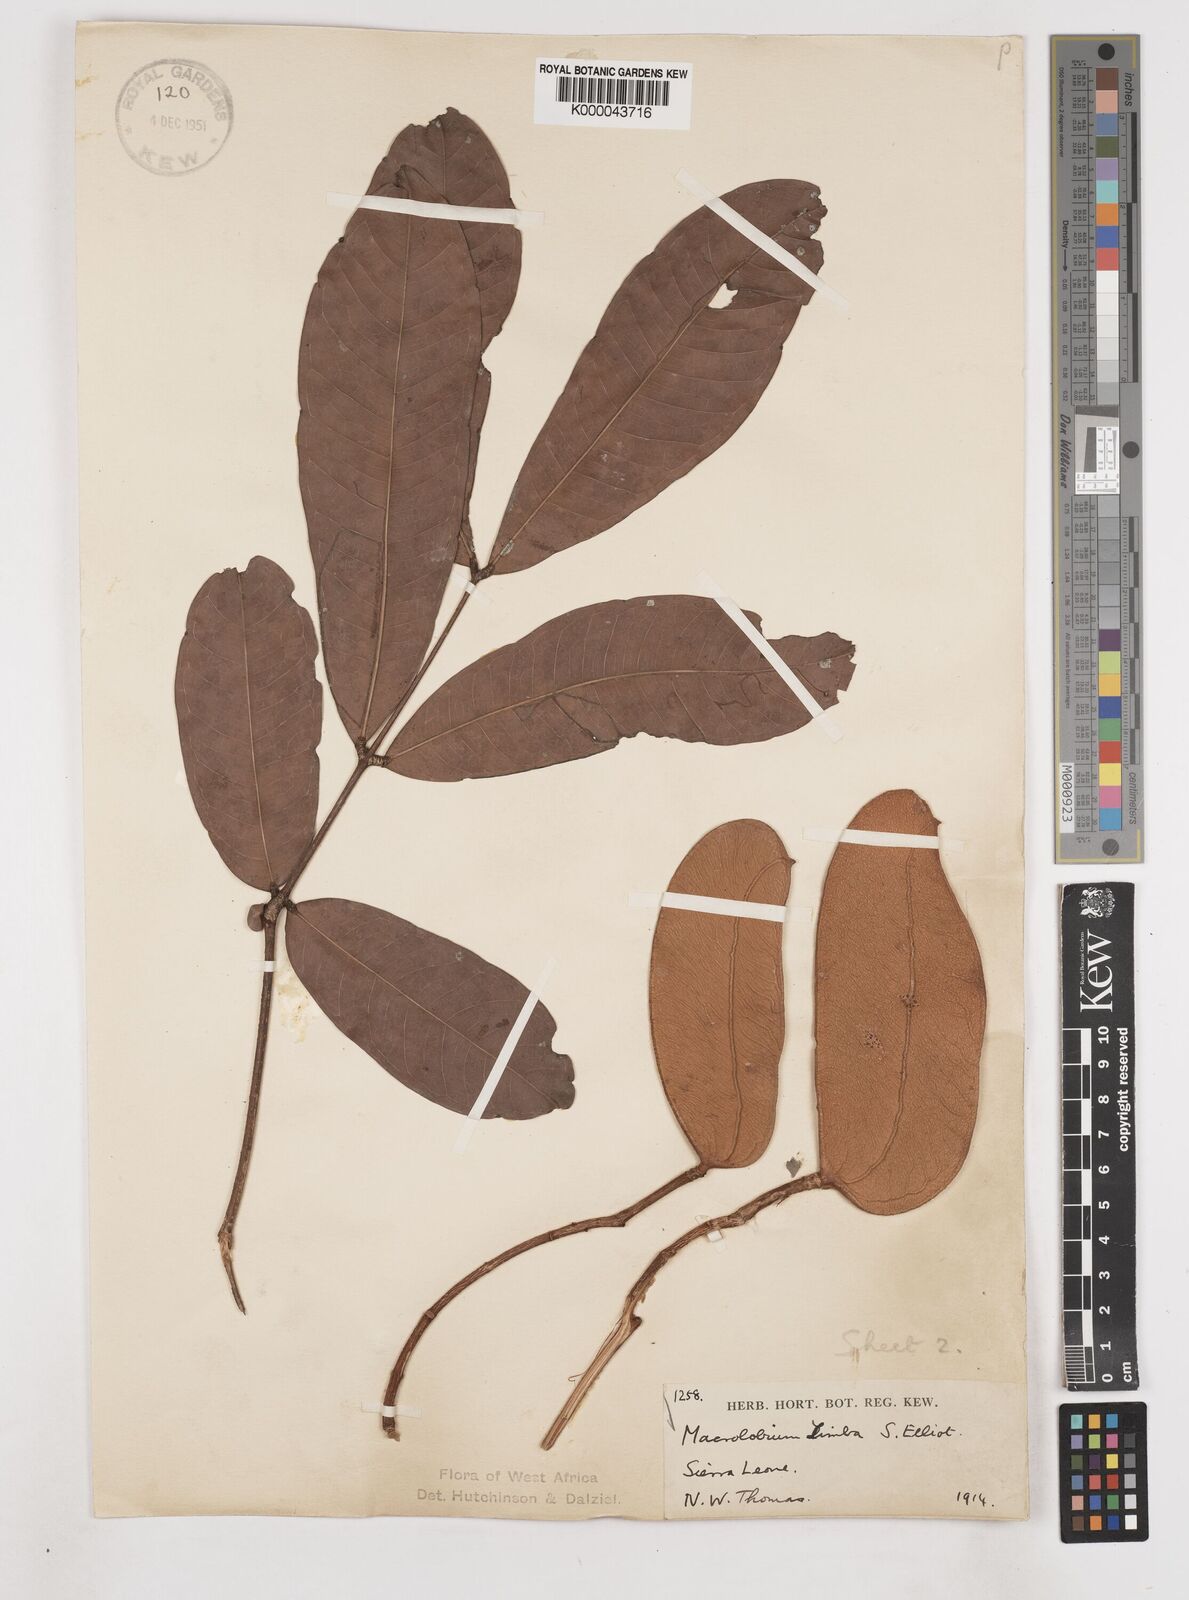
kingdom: Plantae
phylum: Tracheophyta
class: Magnoliopsida
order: Fabales
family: Fabaceae
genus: Gilbertiodendron
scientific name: Gilbertiodendron
